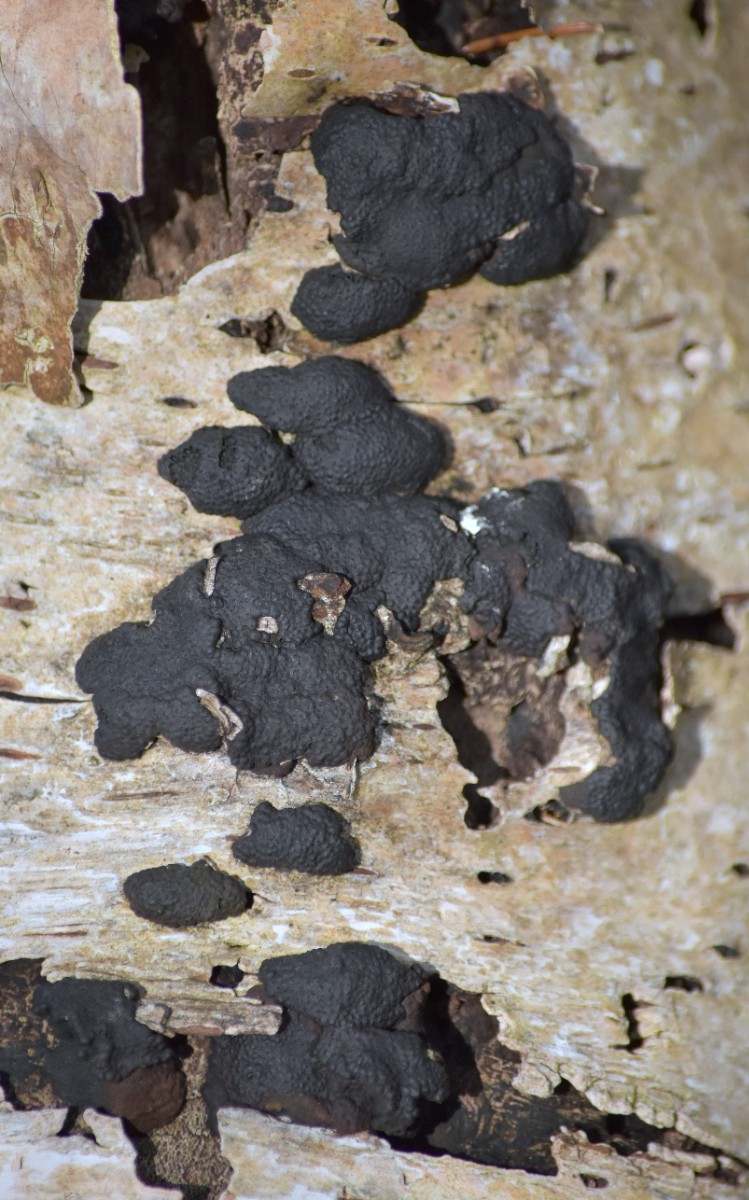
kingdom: Fungi
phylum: Ascomycota
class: Sordariomycetes
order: Xylariales
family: Hypoxylaceae
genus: Jackrogersella
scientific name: Jackrogersella multiformis
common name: foranderlig kulbær
